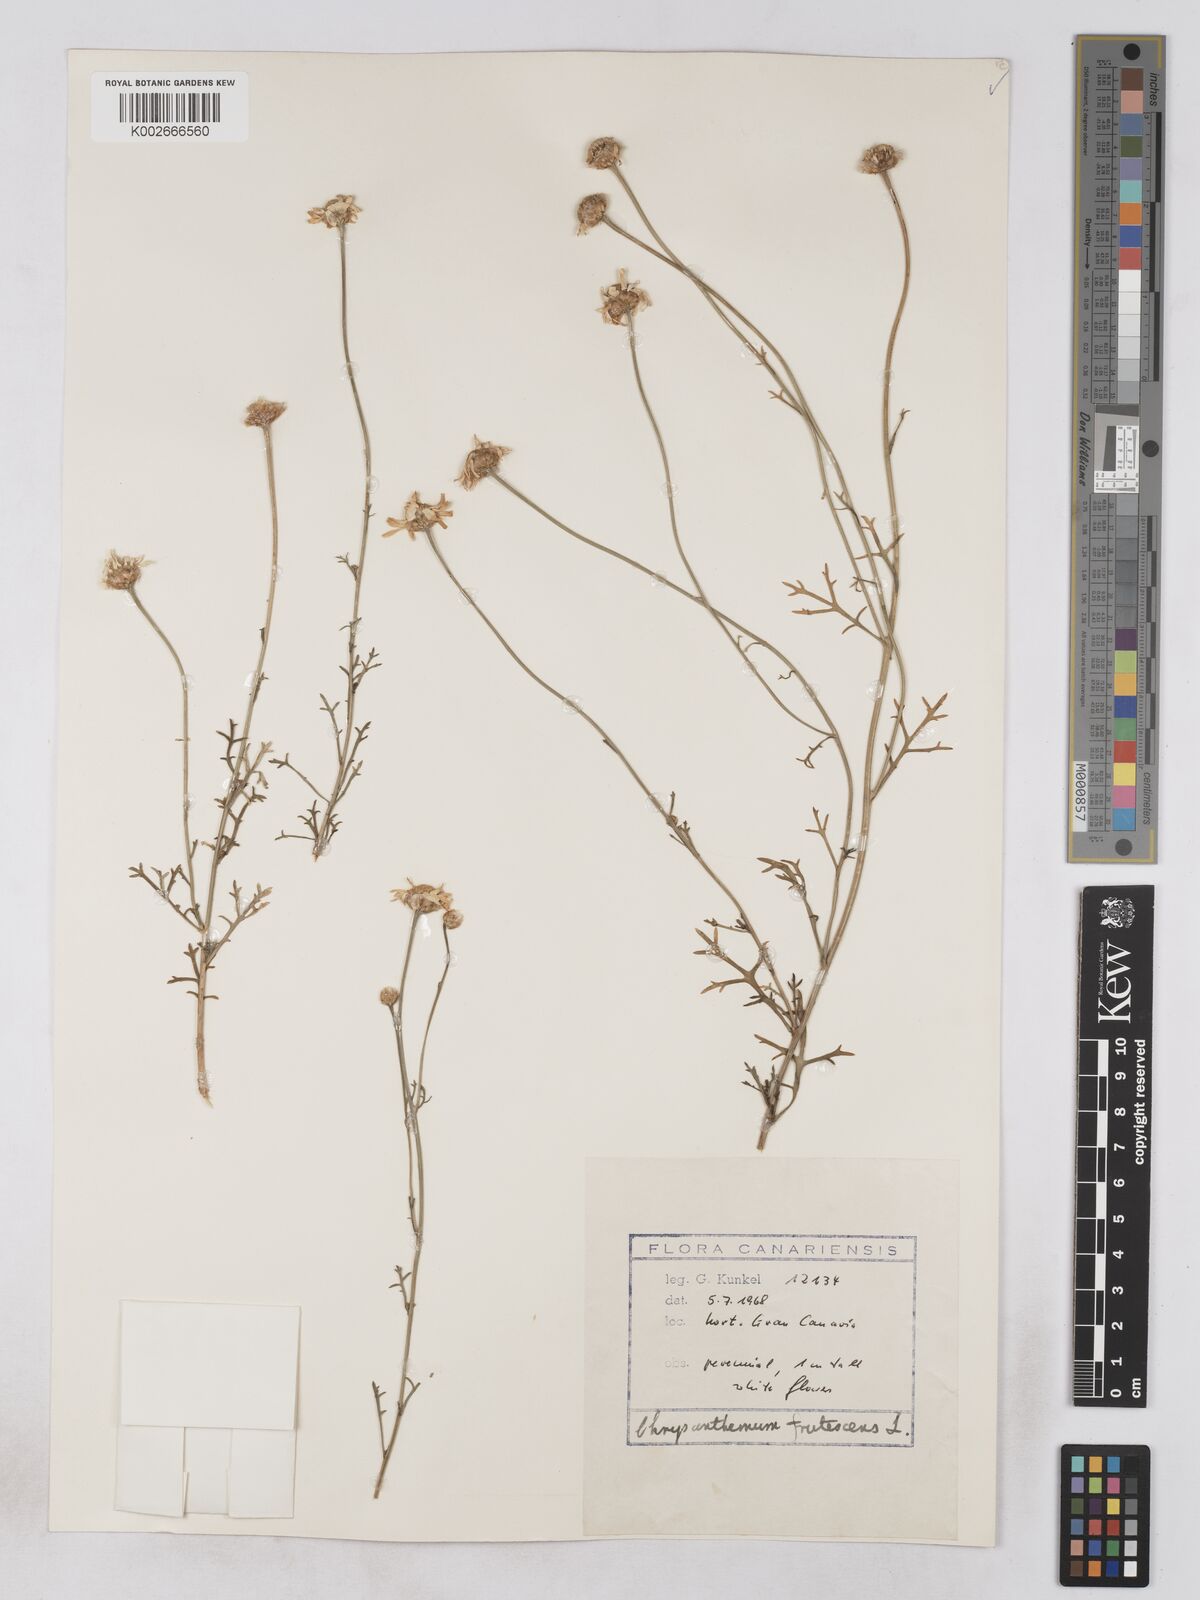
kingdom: Plantae
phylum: Tracheophyta
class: Magnoliopsida
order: Asterales
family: Asteraceae
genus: Argyranthemum
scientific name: Argyranthemum frutescens
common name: Paris daisy
